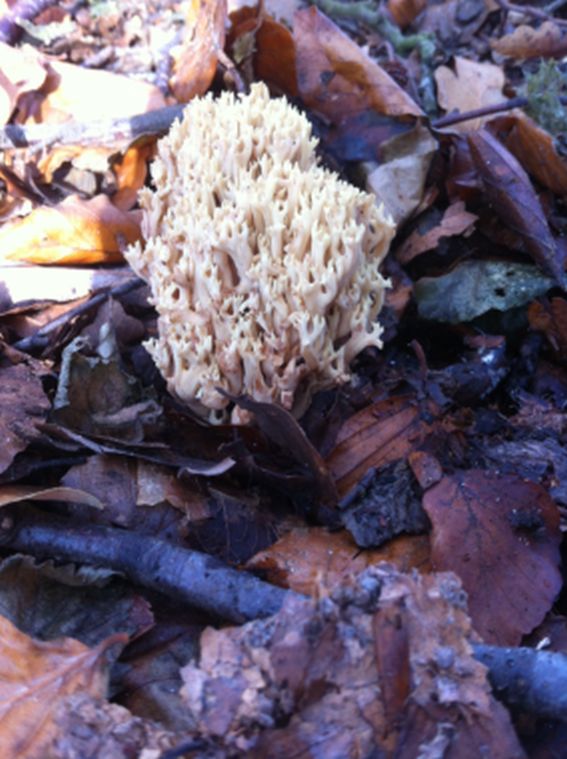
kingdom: Fungi
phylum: Basidiomycota
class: Agaricomycetes
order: Gomphales
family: Gomphaceae
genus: Ramaria
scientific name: Ramaria stricta
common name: rank koralsvamp
